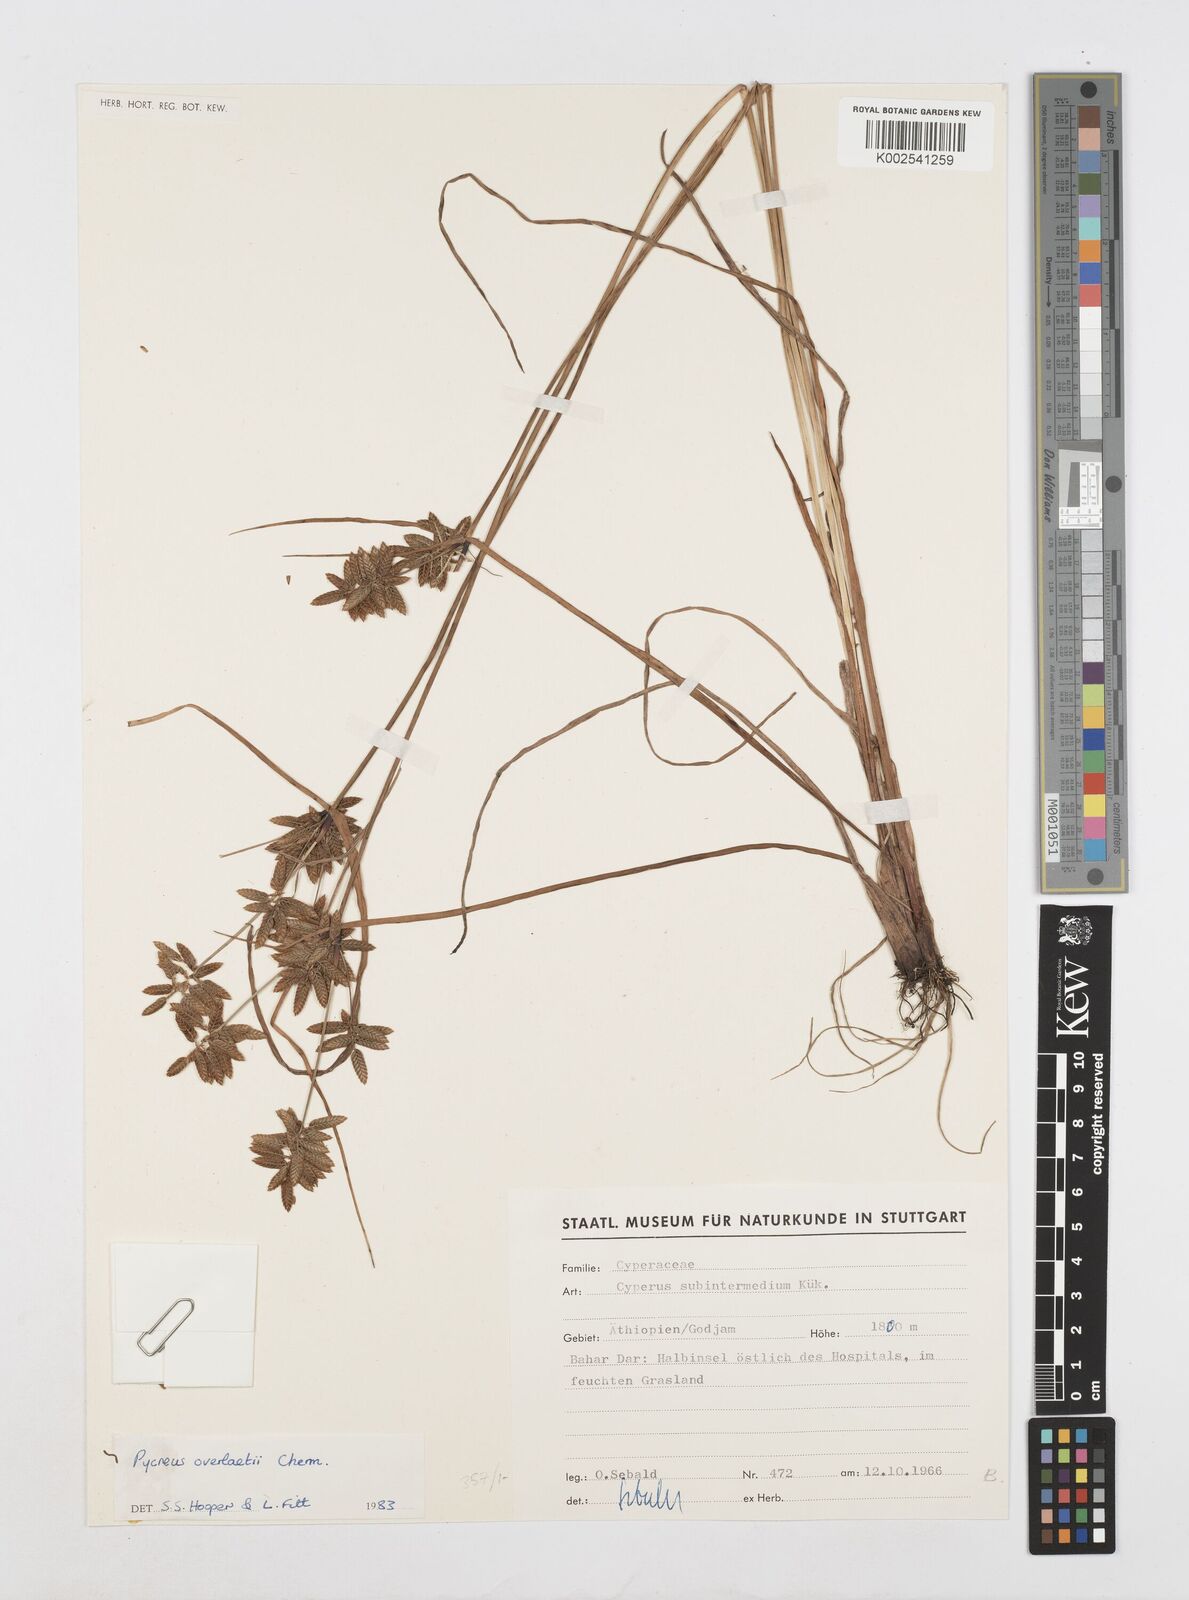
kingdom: Plantae
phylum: Tracheophyta
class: Liliopsida
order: Poales
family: Cyperaceae
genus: Cyperus
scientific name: Cyperus unioloides
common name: Uniola flatsedge
